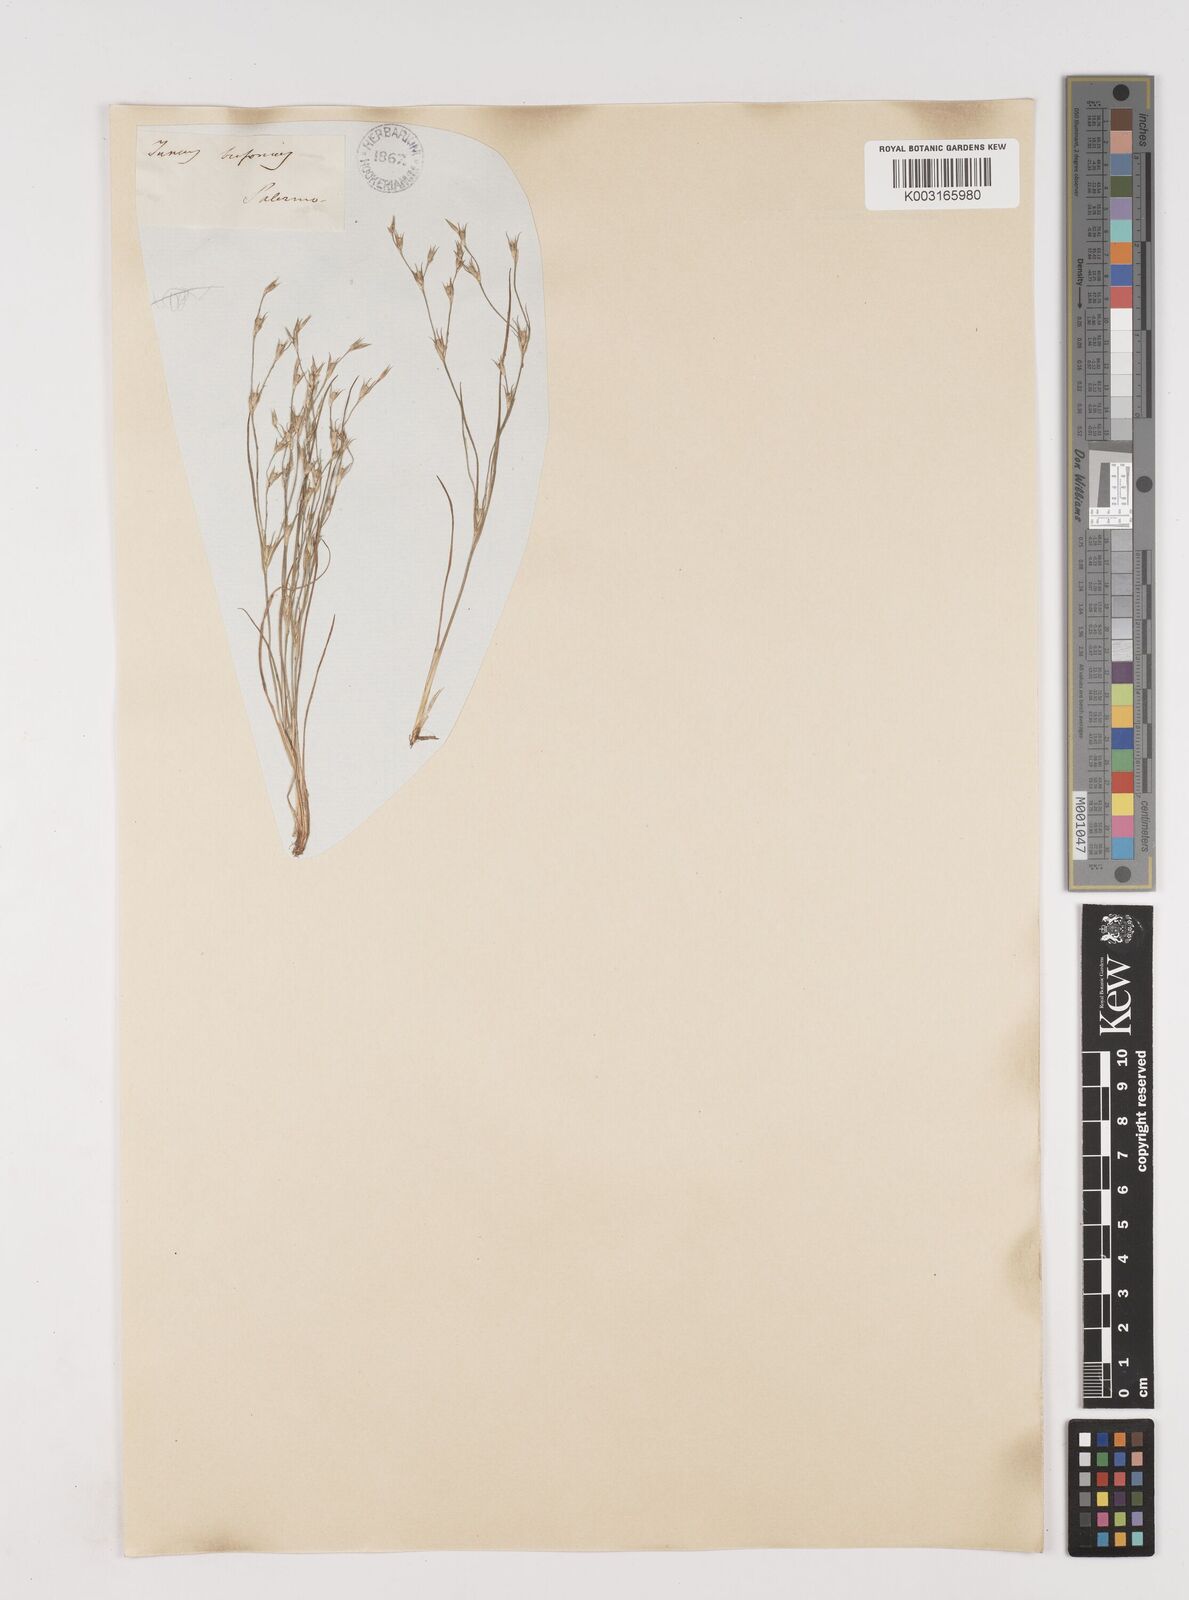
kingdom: Plantae
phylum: Tracheophyta
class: Liliopsida
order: Poales
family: Juncaceae
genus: Juncus
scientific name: Juncus bufonius
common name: Toad rush
